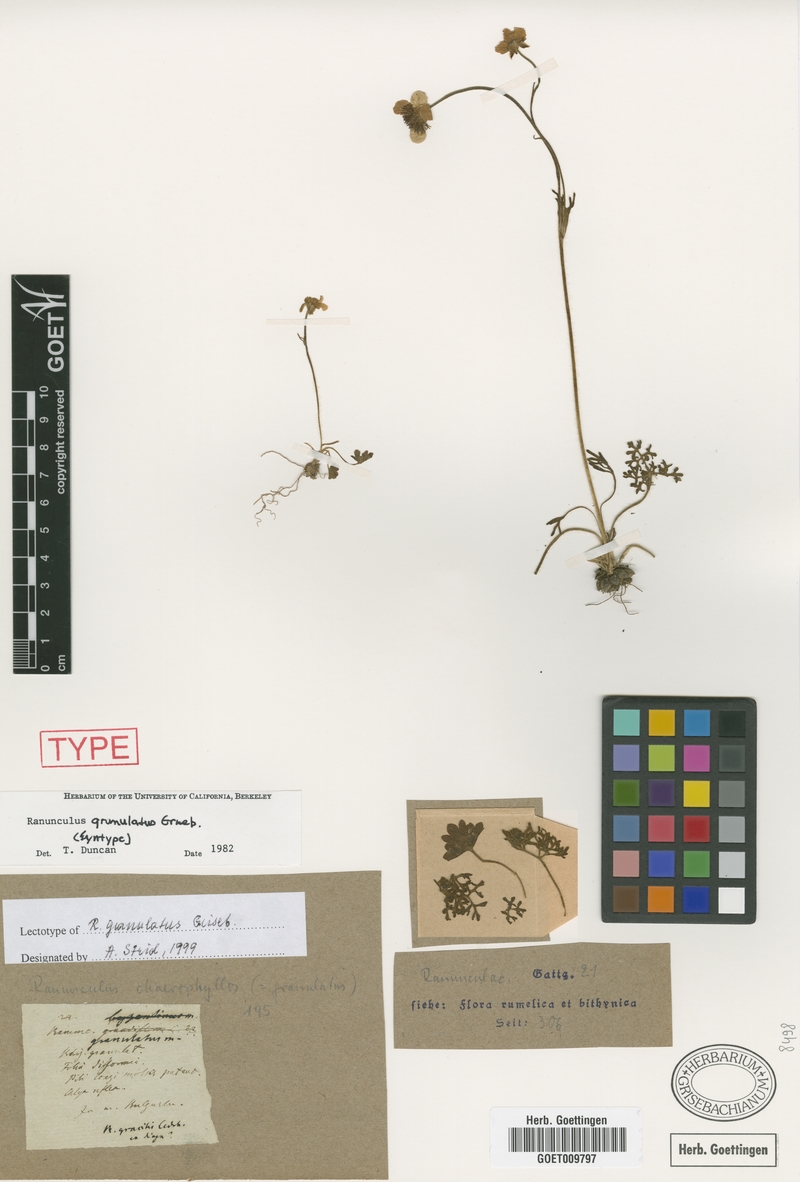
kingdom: Plantae
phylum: Tracheophyta
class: Magnoliopsida
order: Ranunculales
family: Ranunculaceae
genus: Ranunculus
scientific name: Ranunculus gracilis
